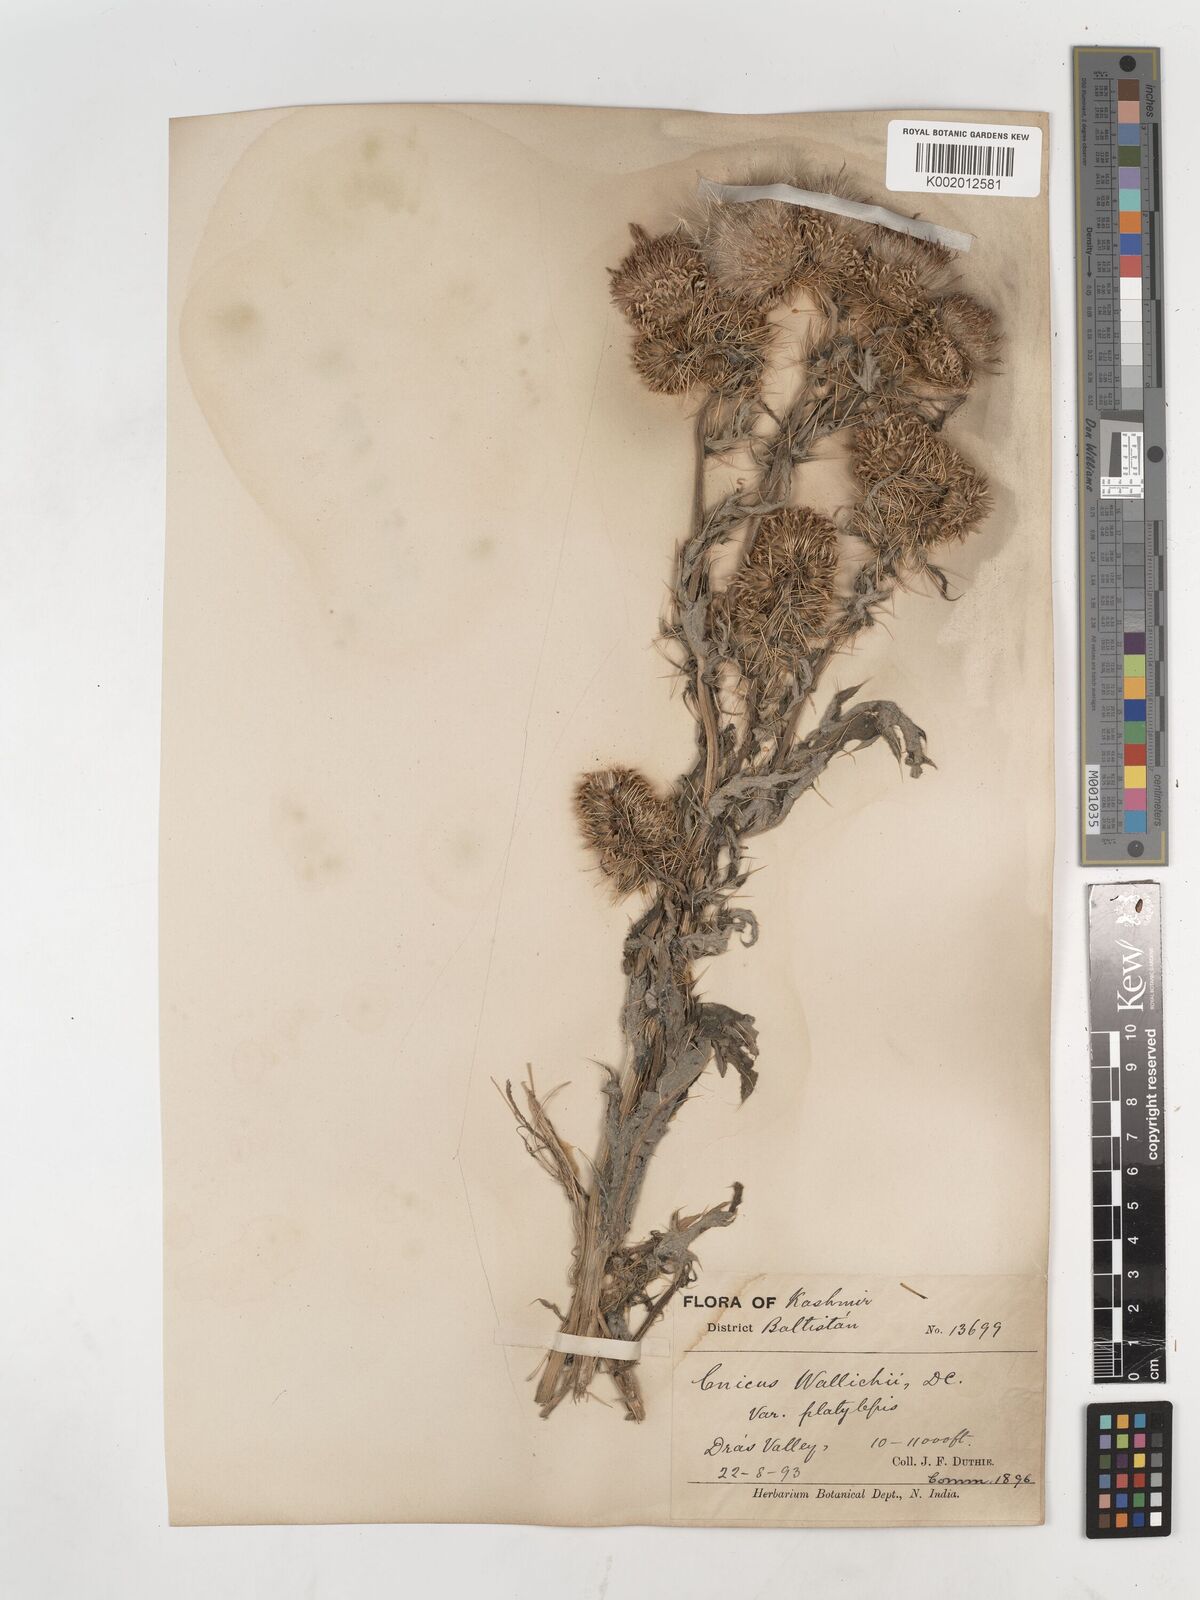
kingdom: Plantae
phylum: Tracheophyta
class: Magnoliopsida
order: Asterales
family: Asteraceae
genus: Cirsium
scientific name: Cirsium wallichii
